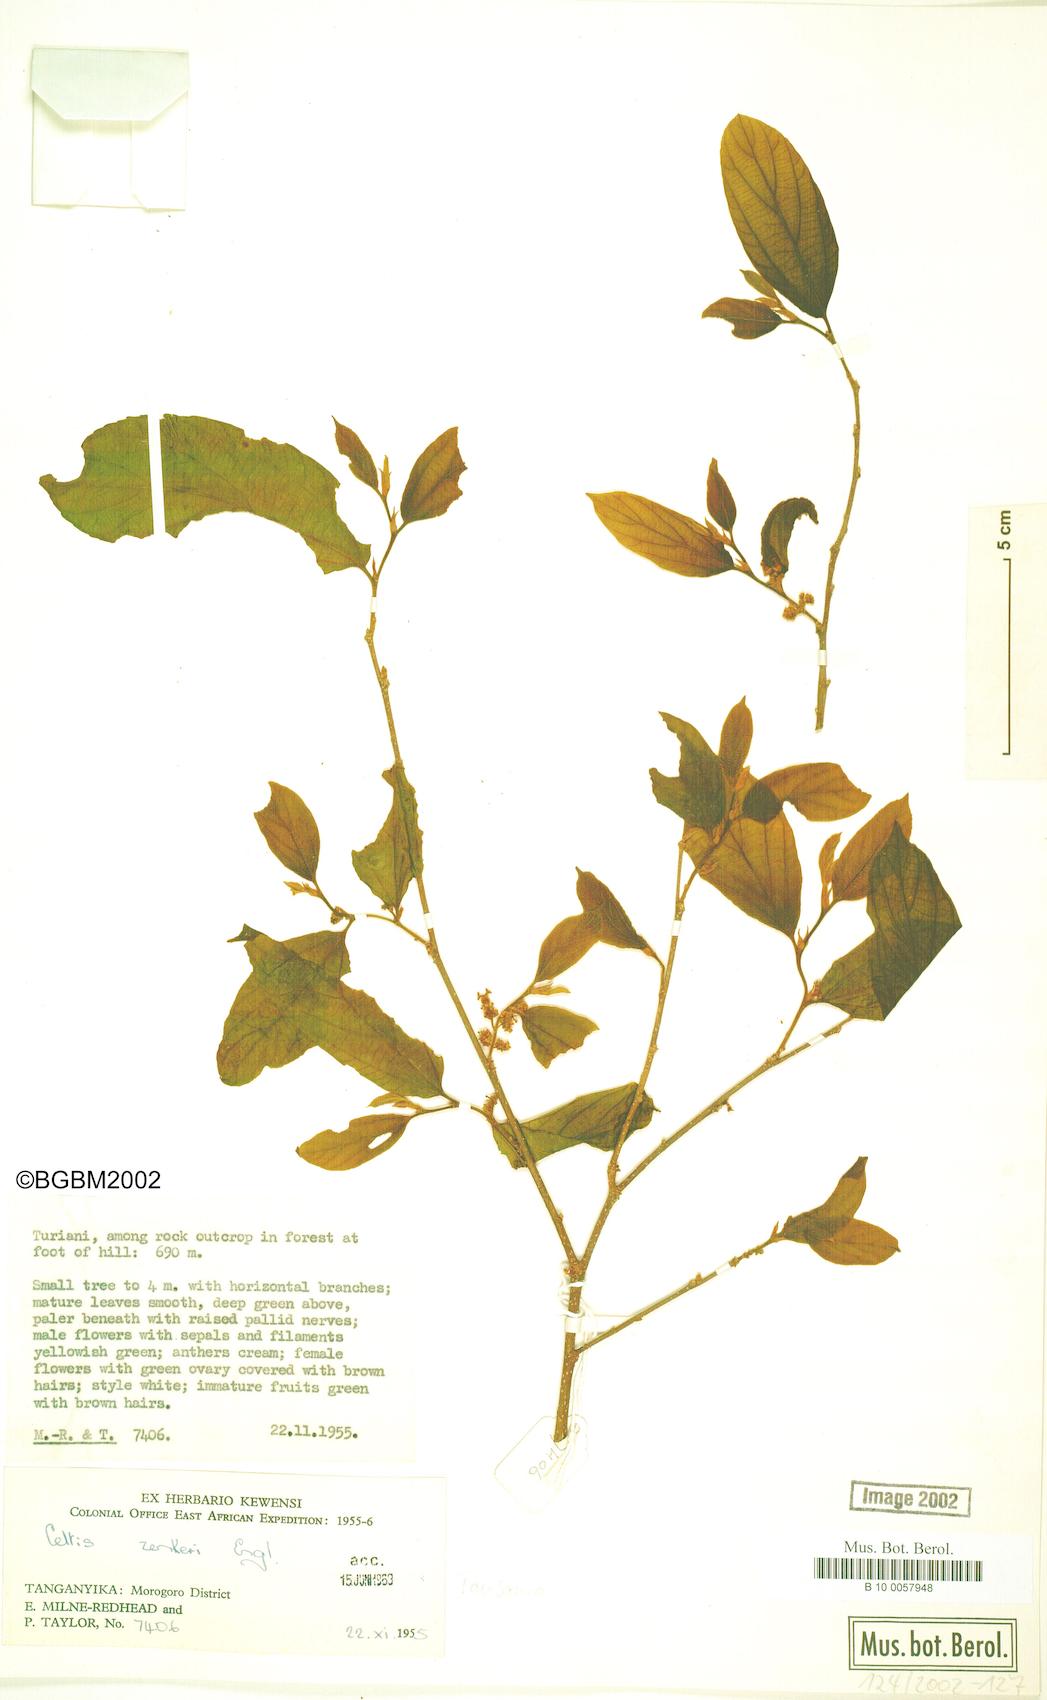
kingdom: Plantae
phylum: Tracheophyta
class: Magnoliopsida
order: Rosales
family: Cannabaceae
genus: Celtis
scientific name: Celtis zenkeri
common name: African celtis
